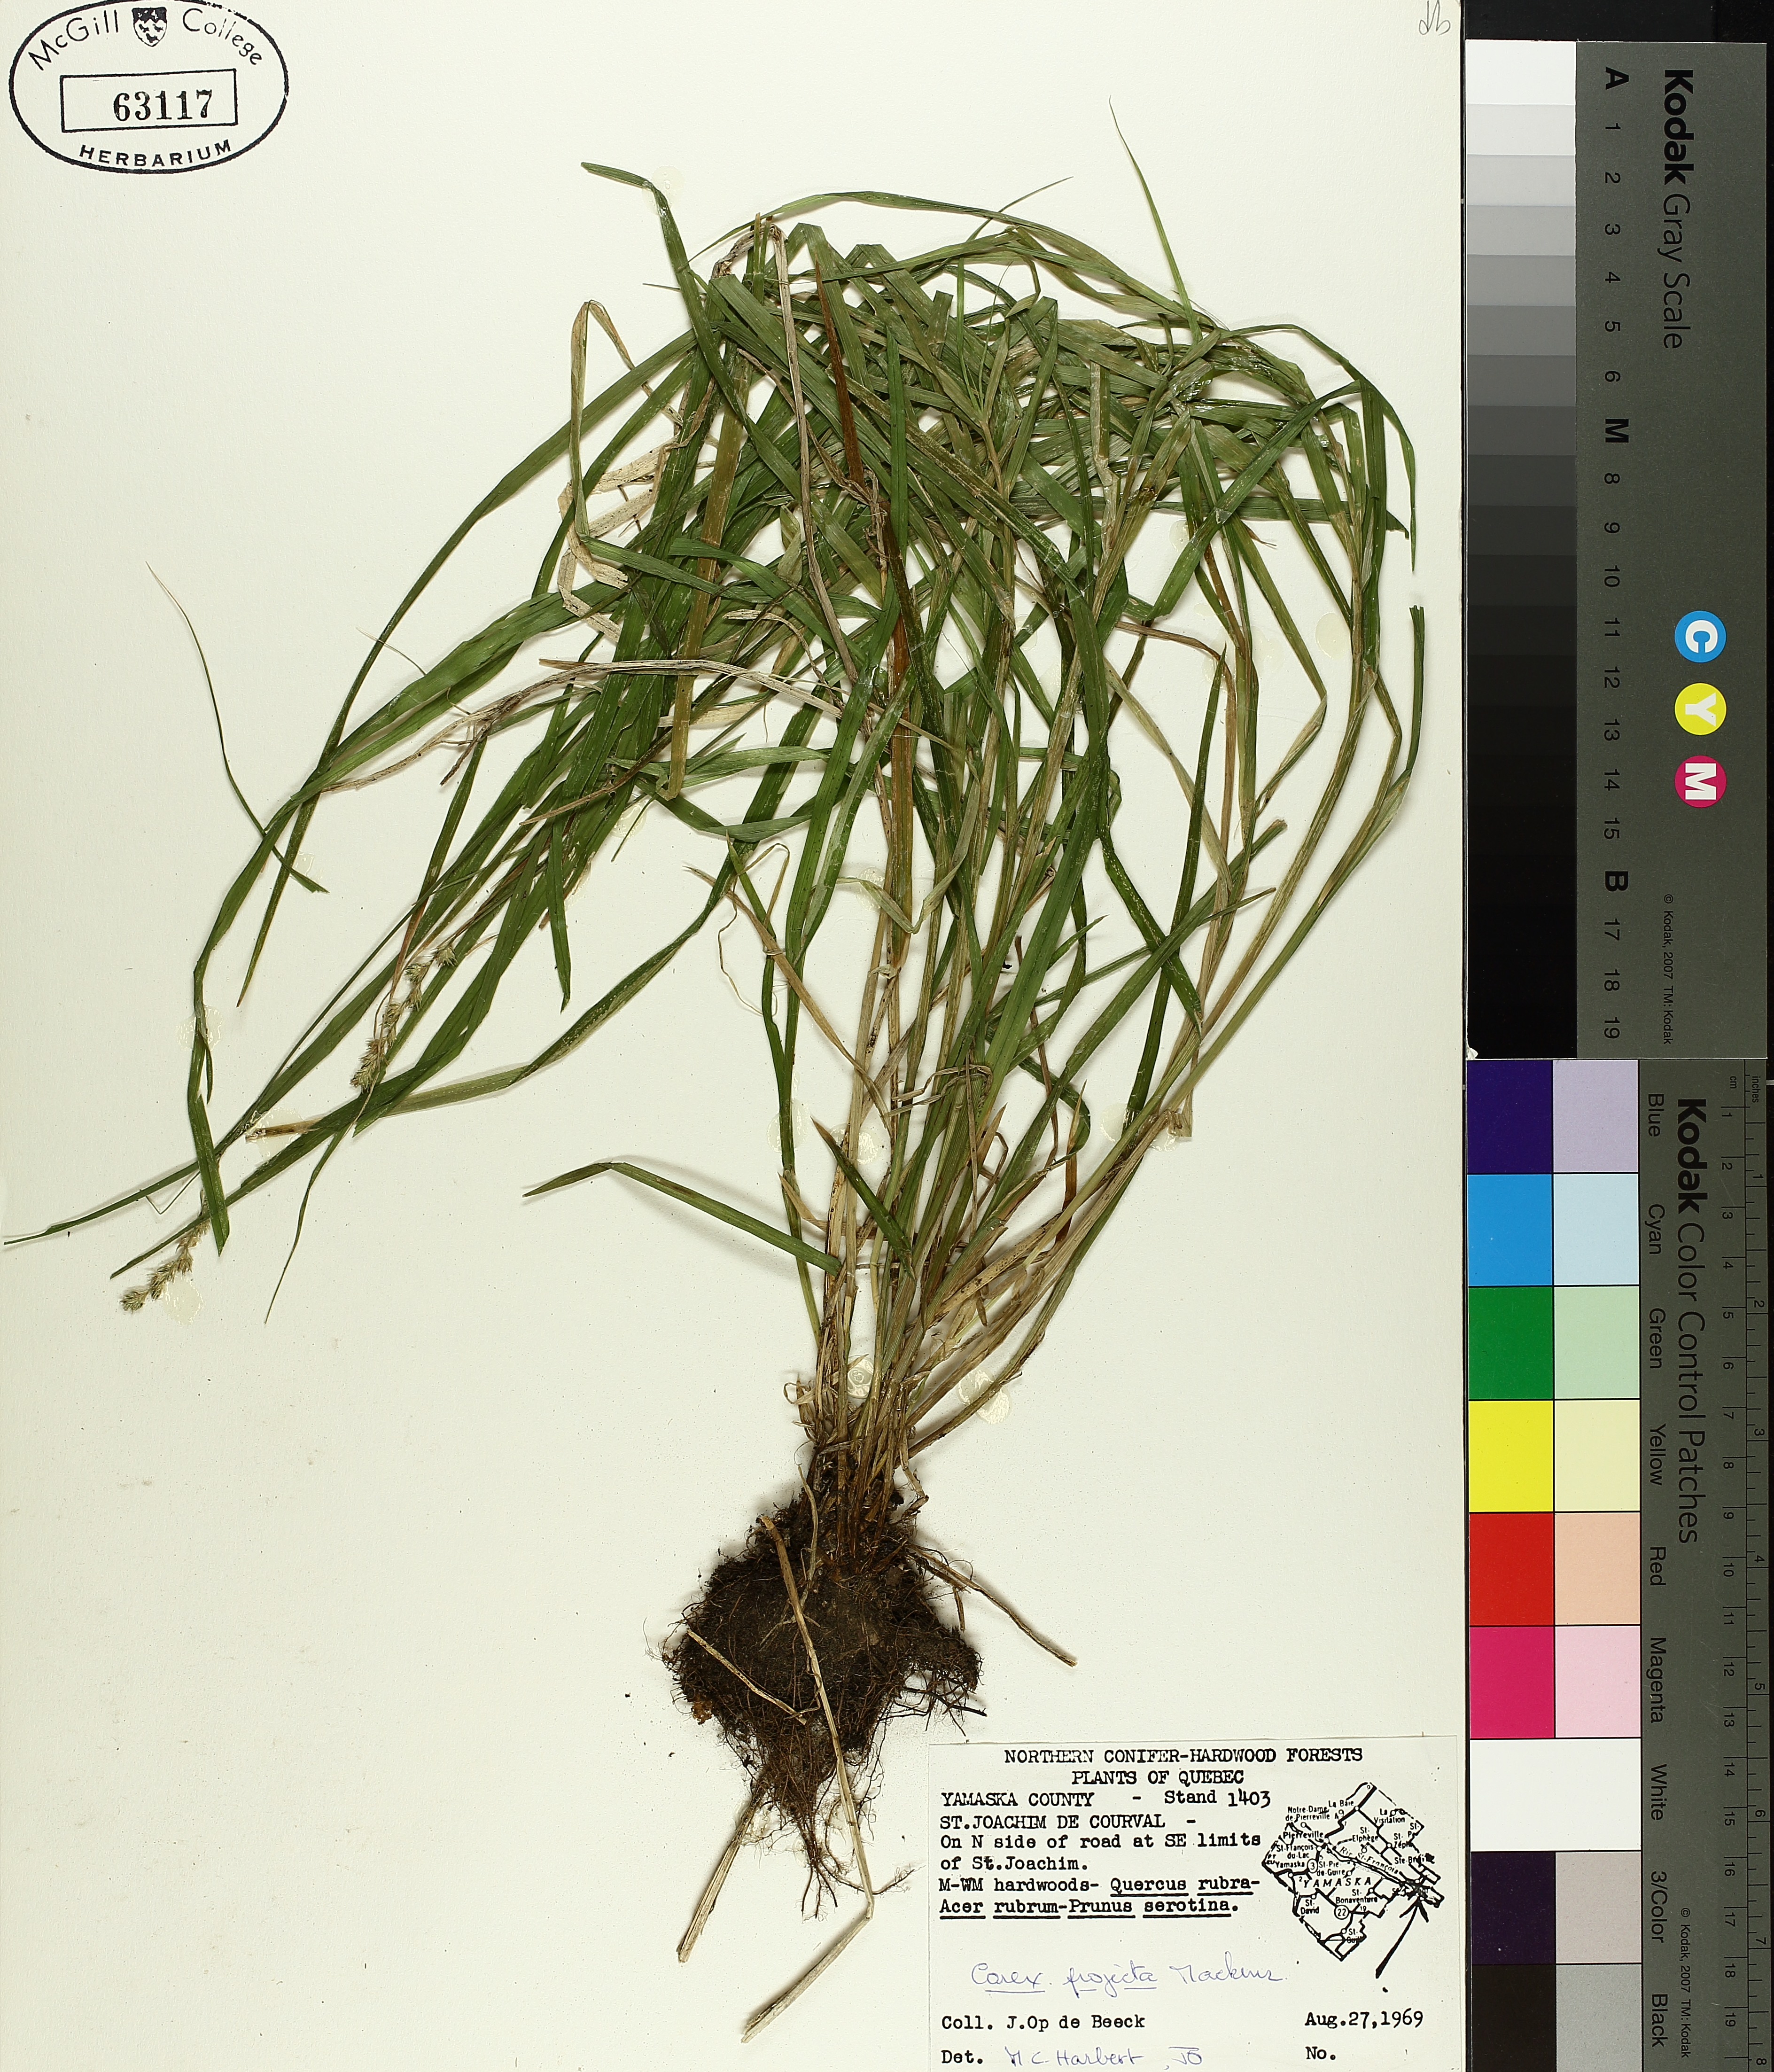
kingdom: Plantae
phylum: Tracheophyta
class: Liliopsida
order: Poales
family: Cyperaceae
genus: Carex
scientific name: Carex projecta
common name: Loose-headed oval sedge
